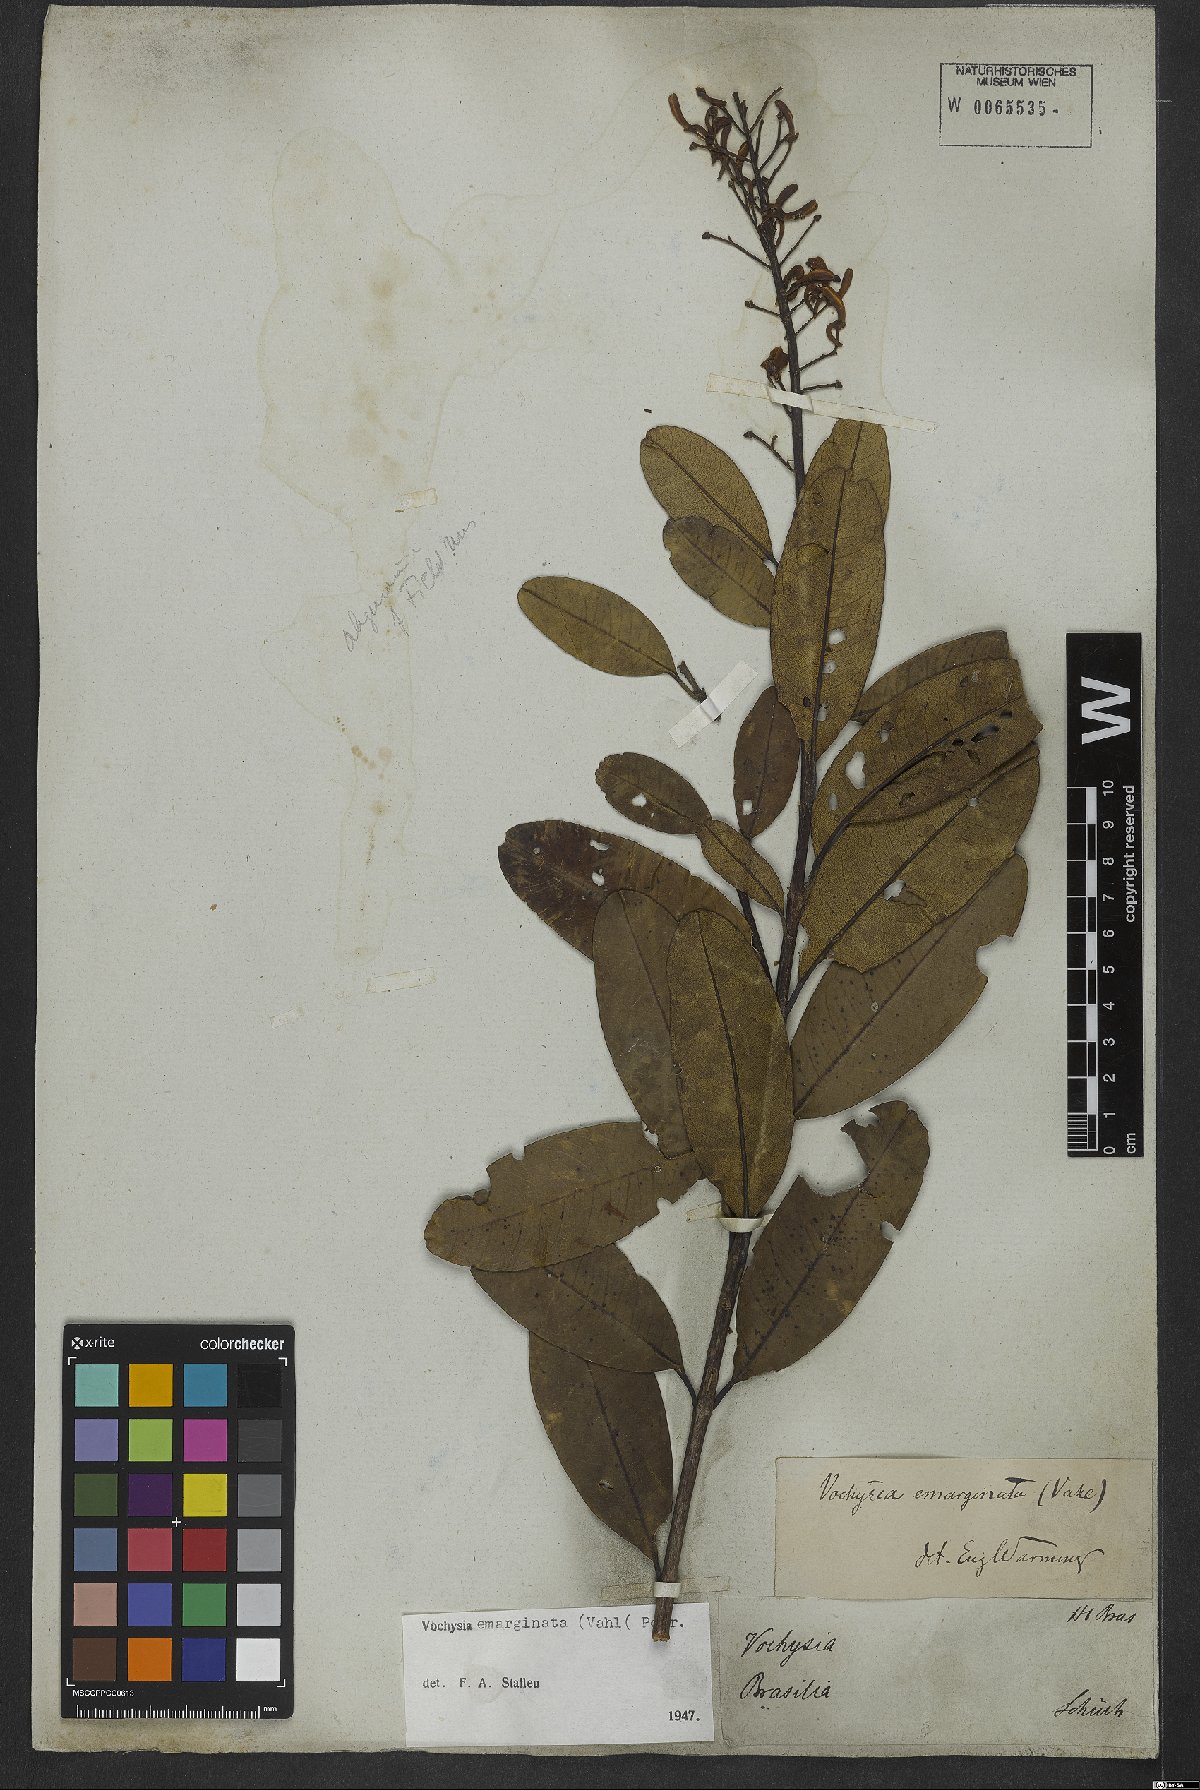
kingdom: Plantae
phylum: Tracheophyta
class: Magnoliopsida
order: Myrtales
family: Vochysiaceae
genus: Vochysia
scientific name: Vochysia emarginata
